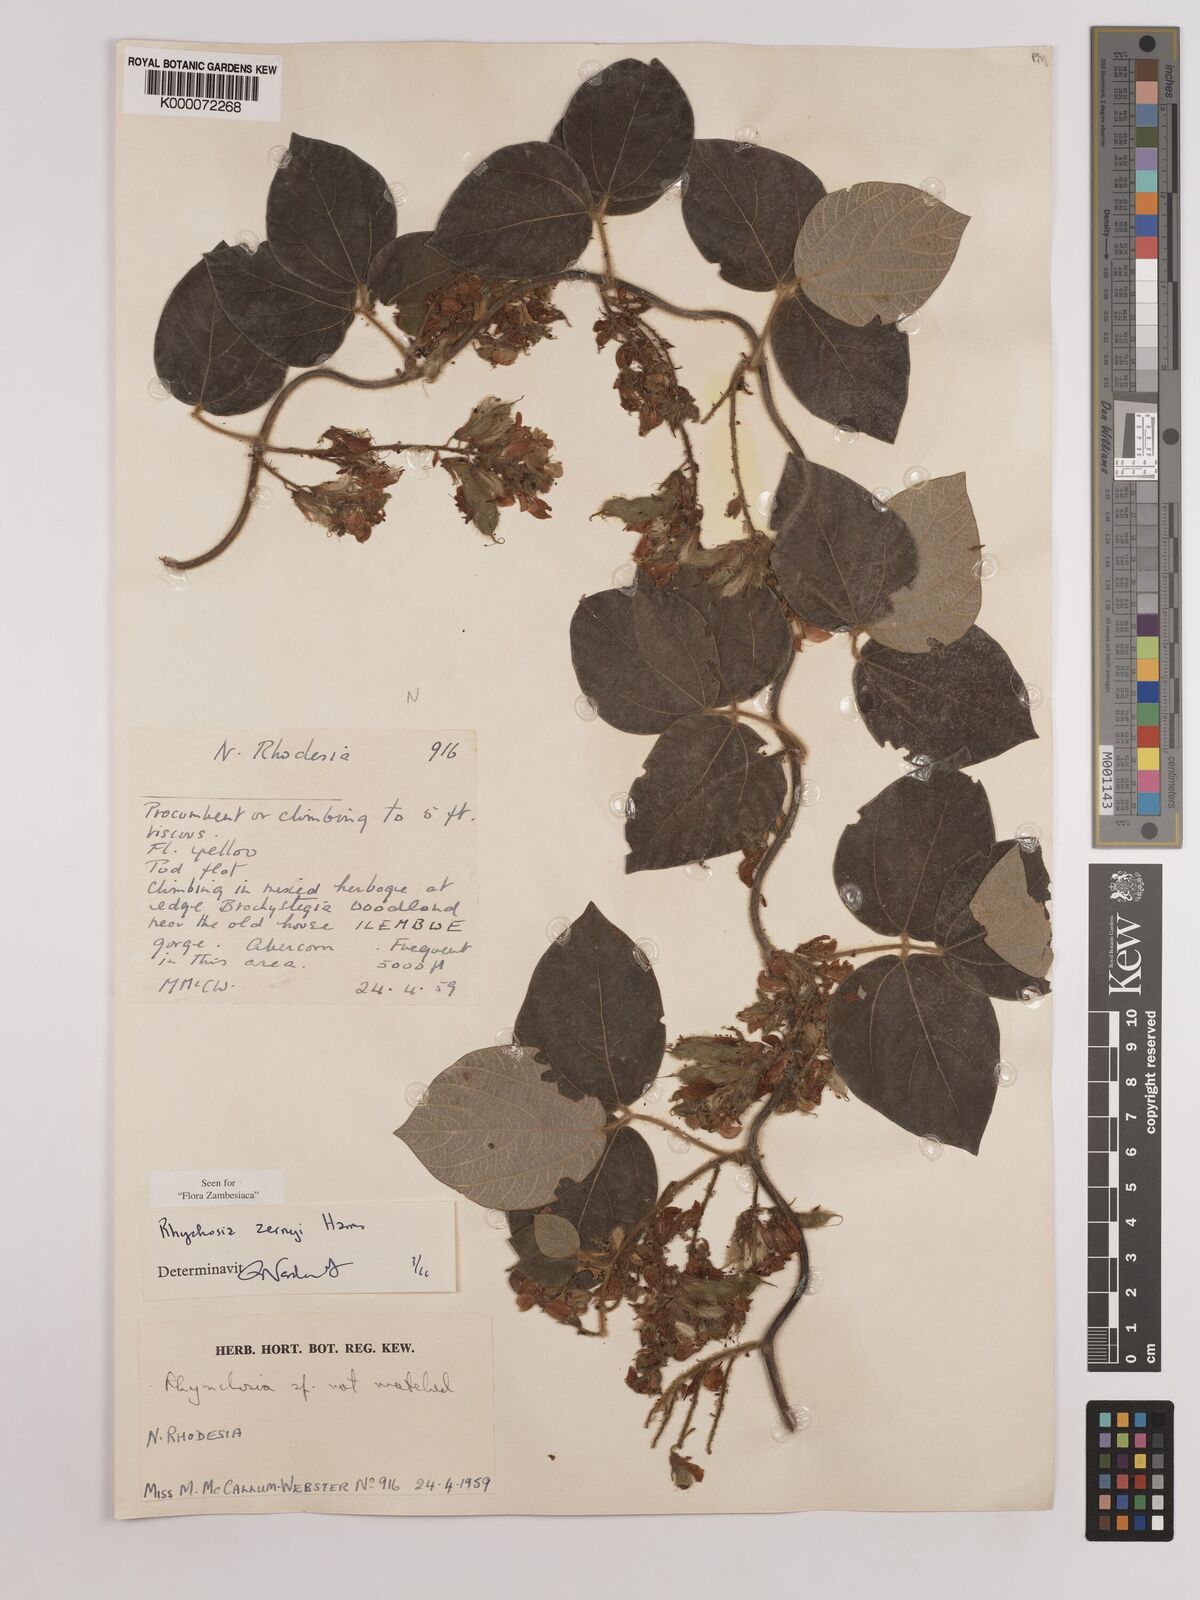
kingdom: Plantae
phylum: Tracheophyta
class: Magnoliopsida
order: Fabales
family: Fabaceae
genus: Rhynchosia
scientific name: Rhynchosia zernyi
